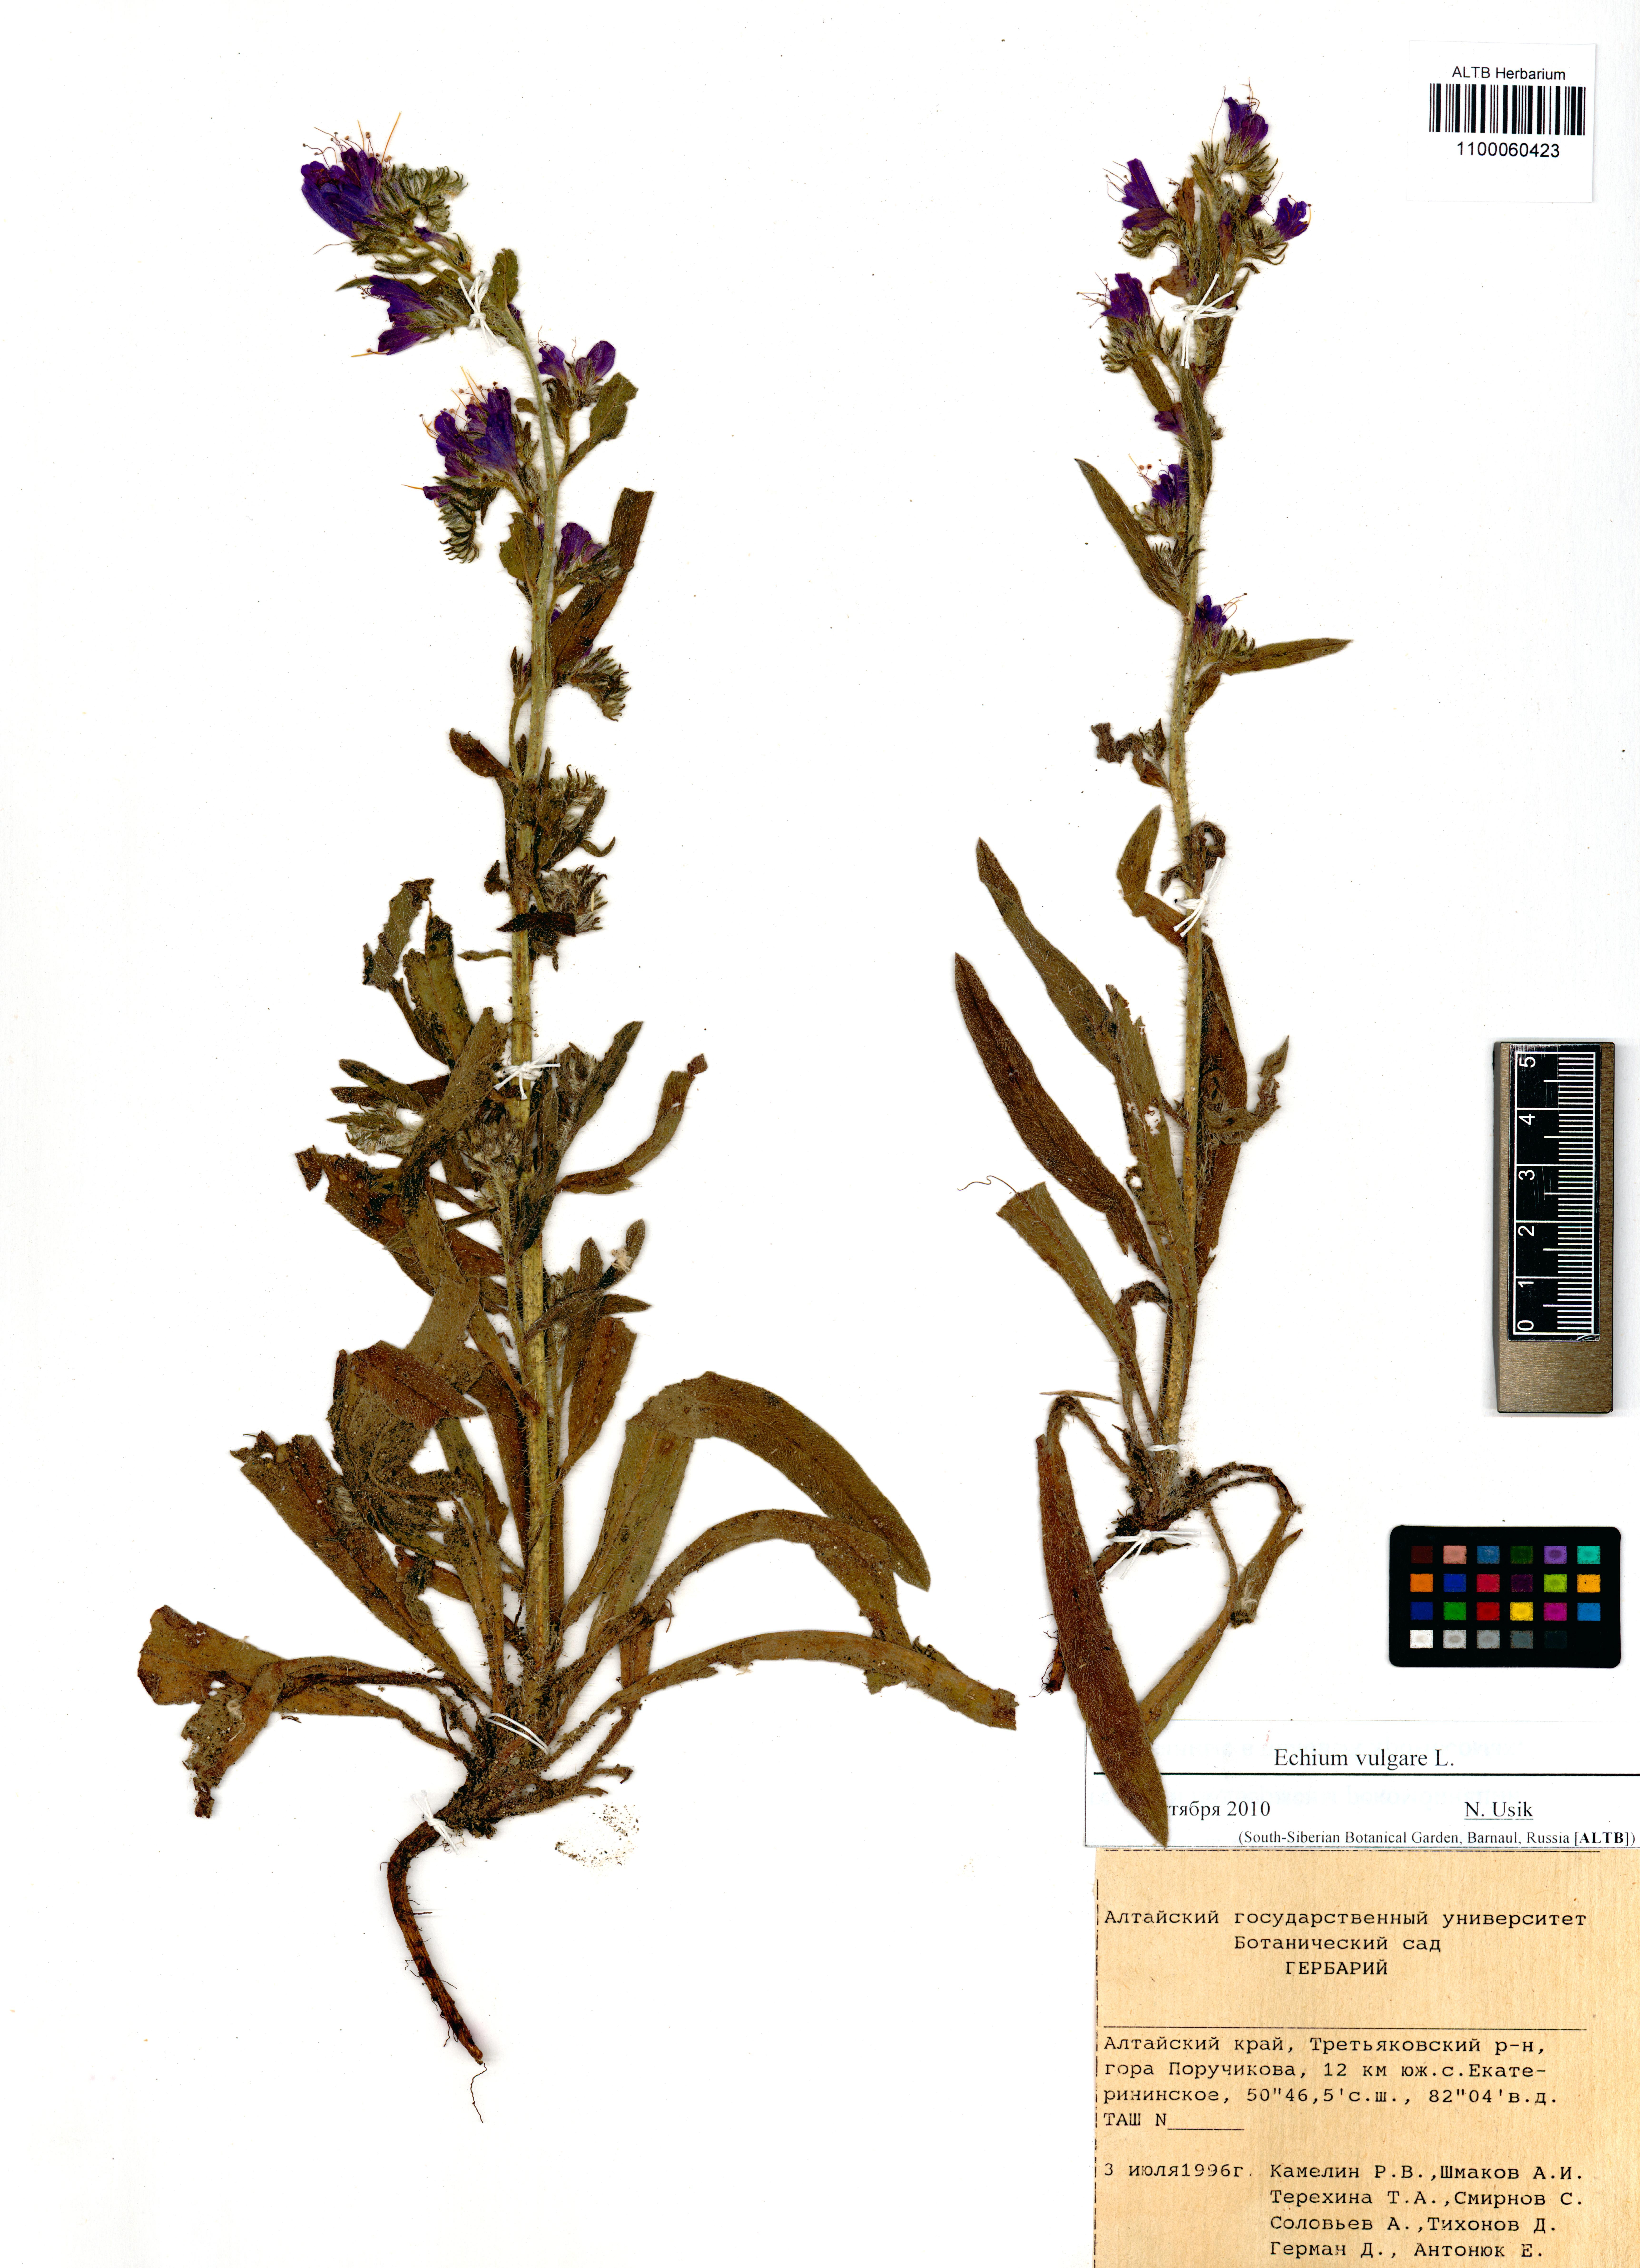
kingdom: Plantae
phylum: Tracheophyta
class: Magnoliopsida
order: Boraginales
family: Boraginaceae
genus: Echium
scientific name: Echium vulgare
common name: Common viper's bugloss
